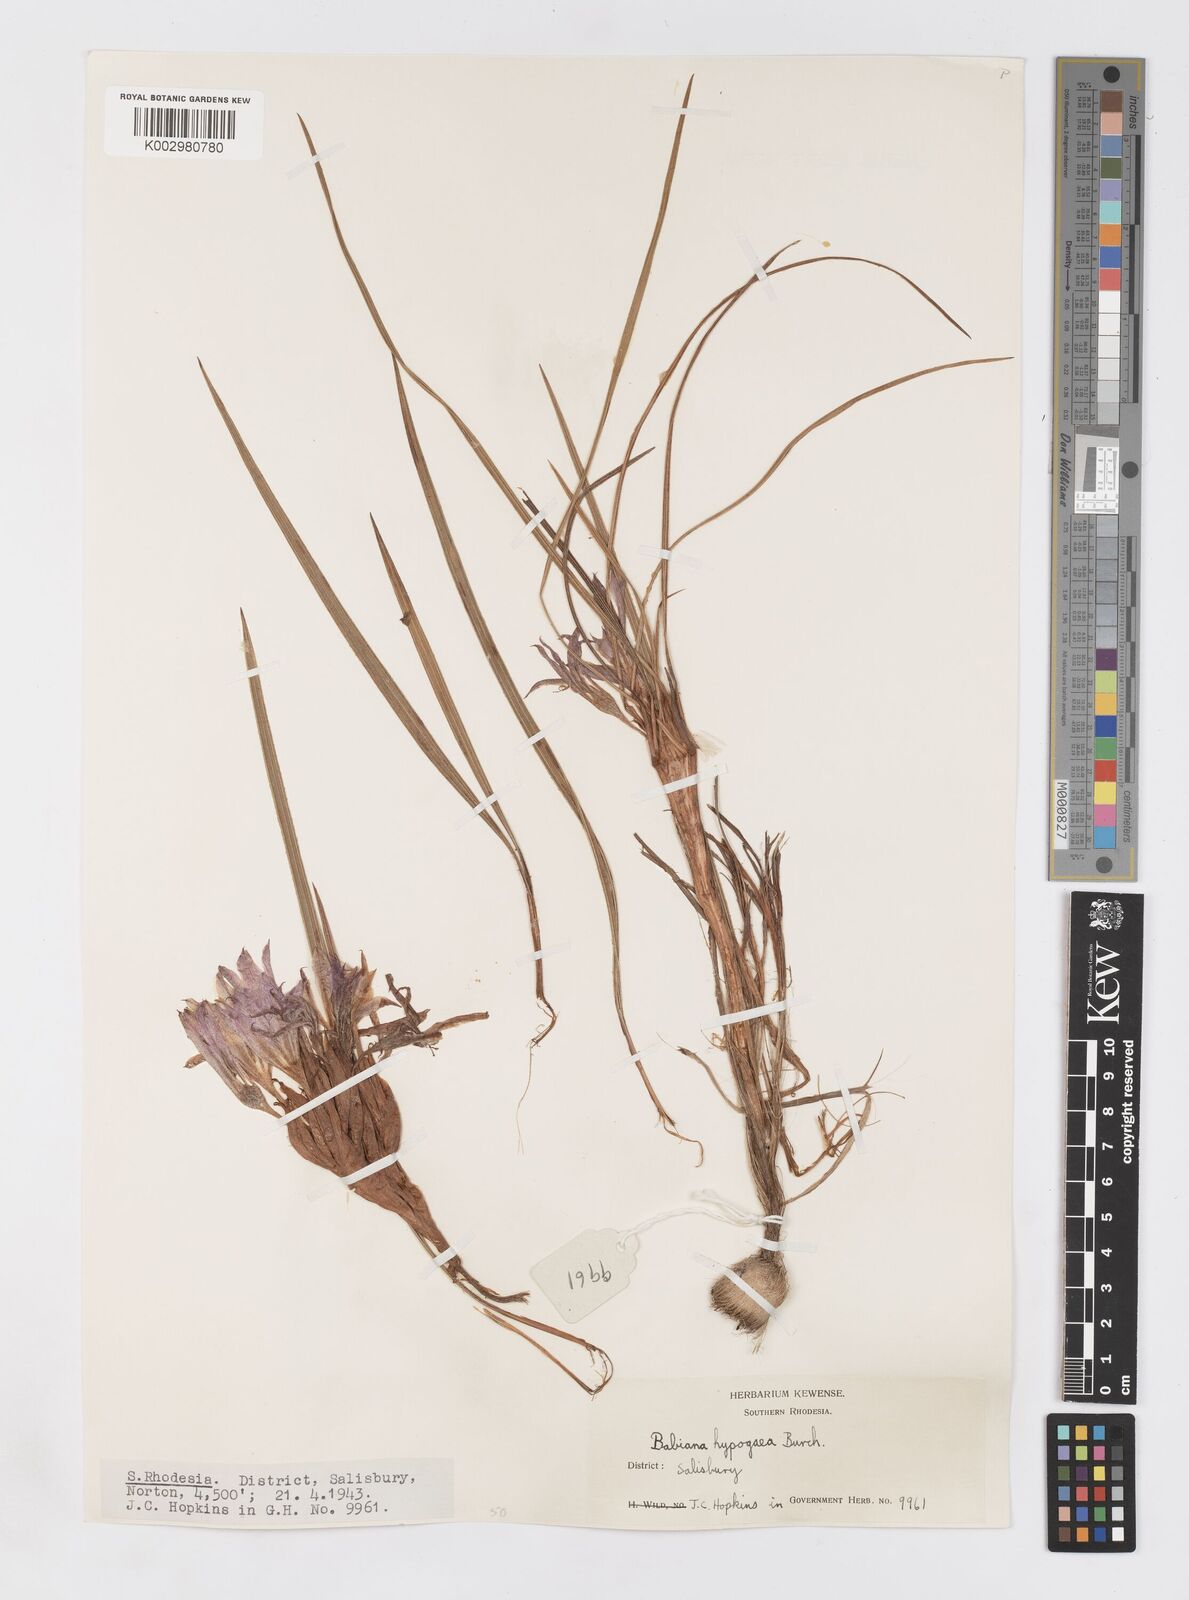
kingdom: Plantae
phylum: Tracheophyta
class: Liliopsida
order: Asparagales
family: Iridaceae
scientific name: Iridaceae
